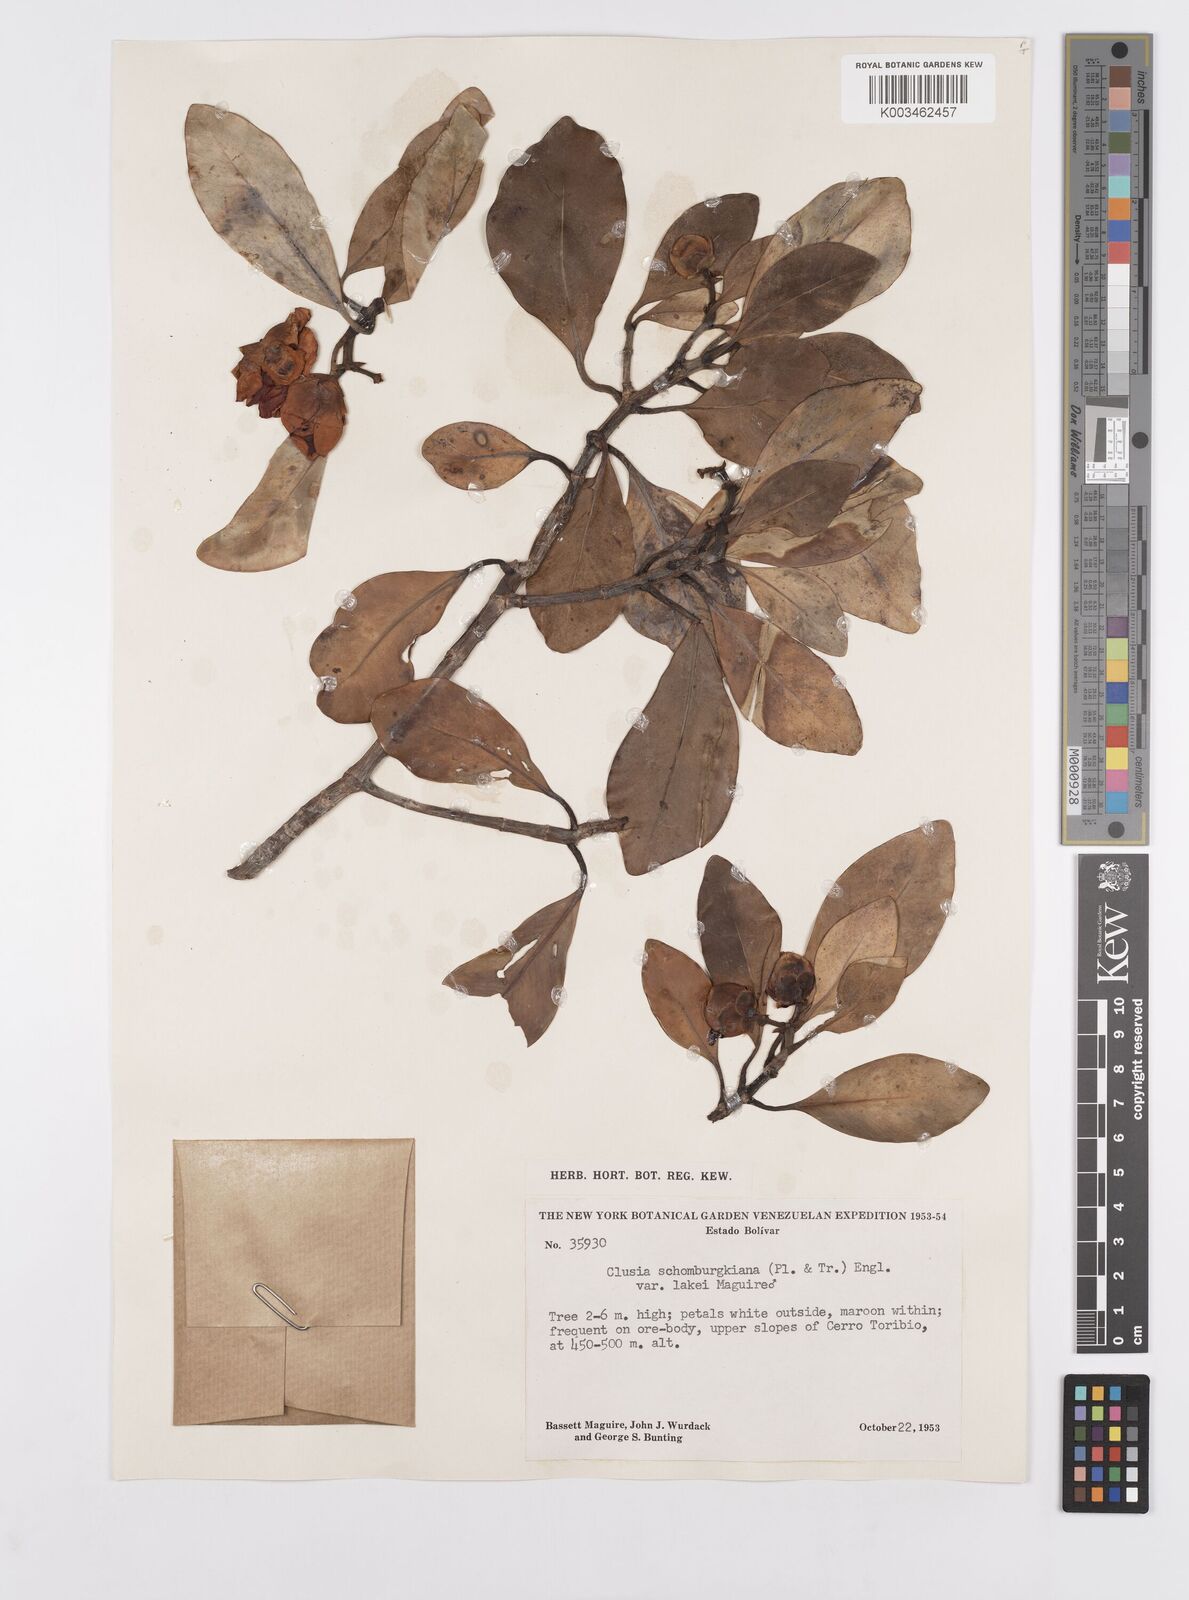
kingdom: Plantae
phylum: Tracheophyta
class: Magnoliopsida
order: Malpighiales
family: Clusiaceae
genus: Clusia
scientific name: Clusia schomburgkiana
